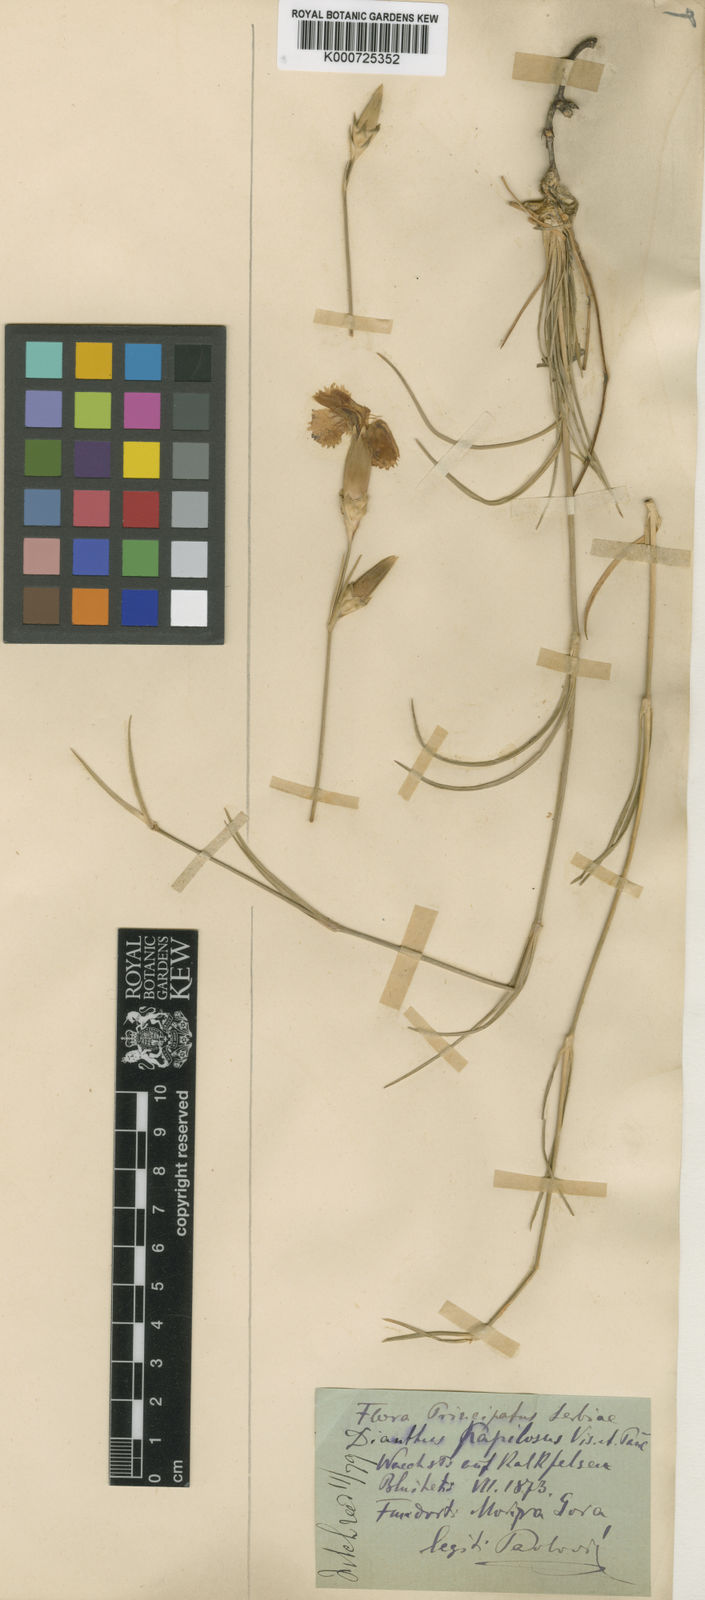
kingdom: Plantae
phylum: Tracheophyta
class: Magnoliopsida
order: Caryophyllales
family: Caryophyllaceae
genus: Dianthus
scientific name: Dianthus moesiacus
